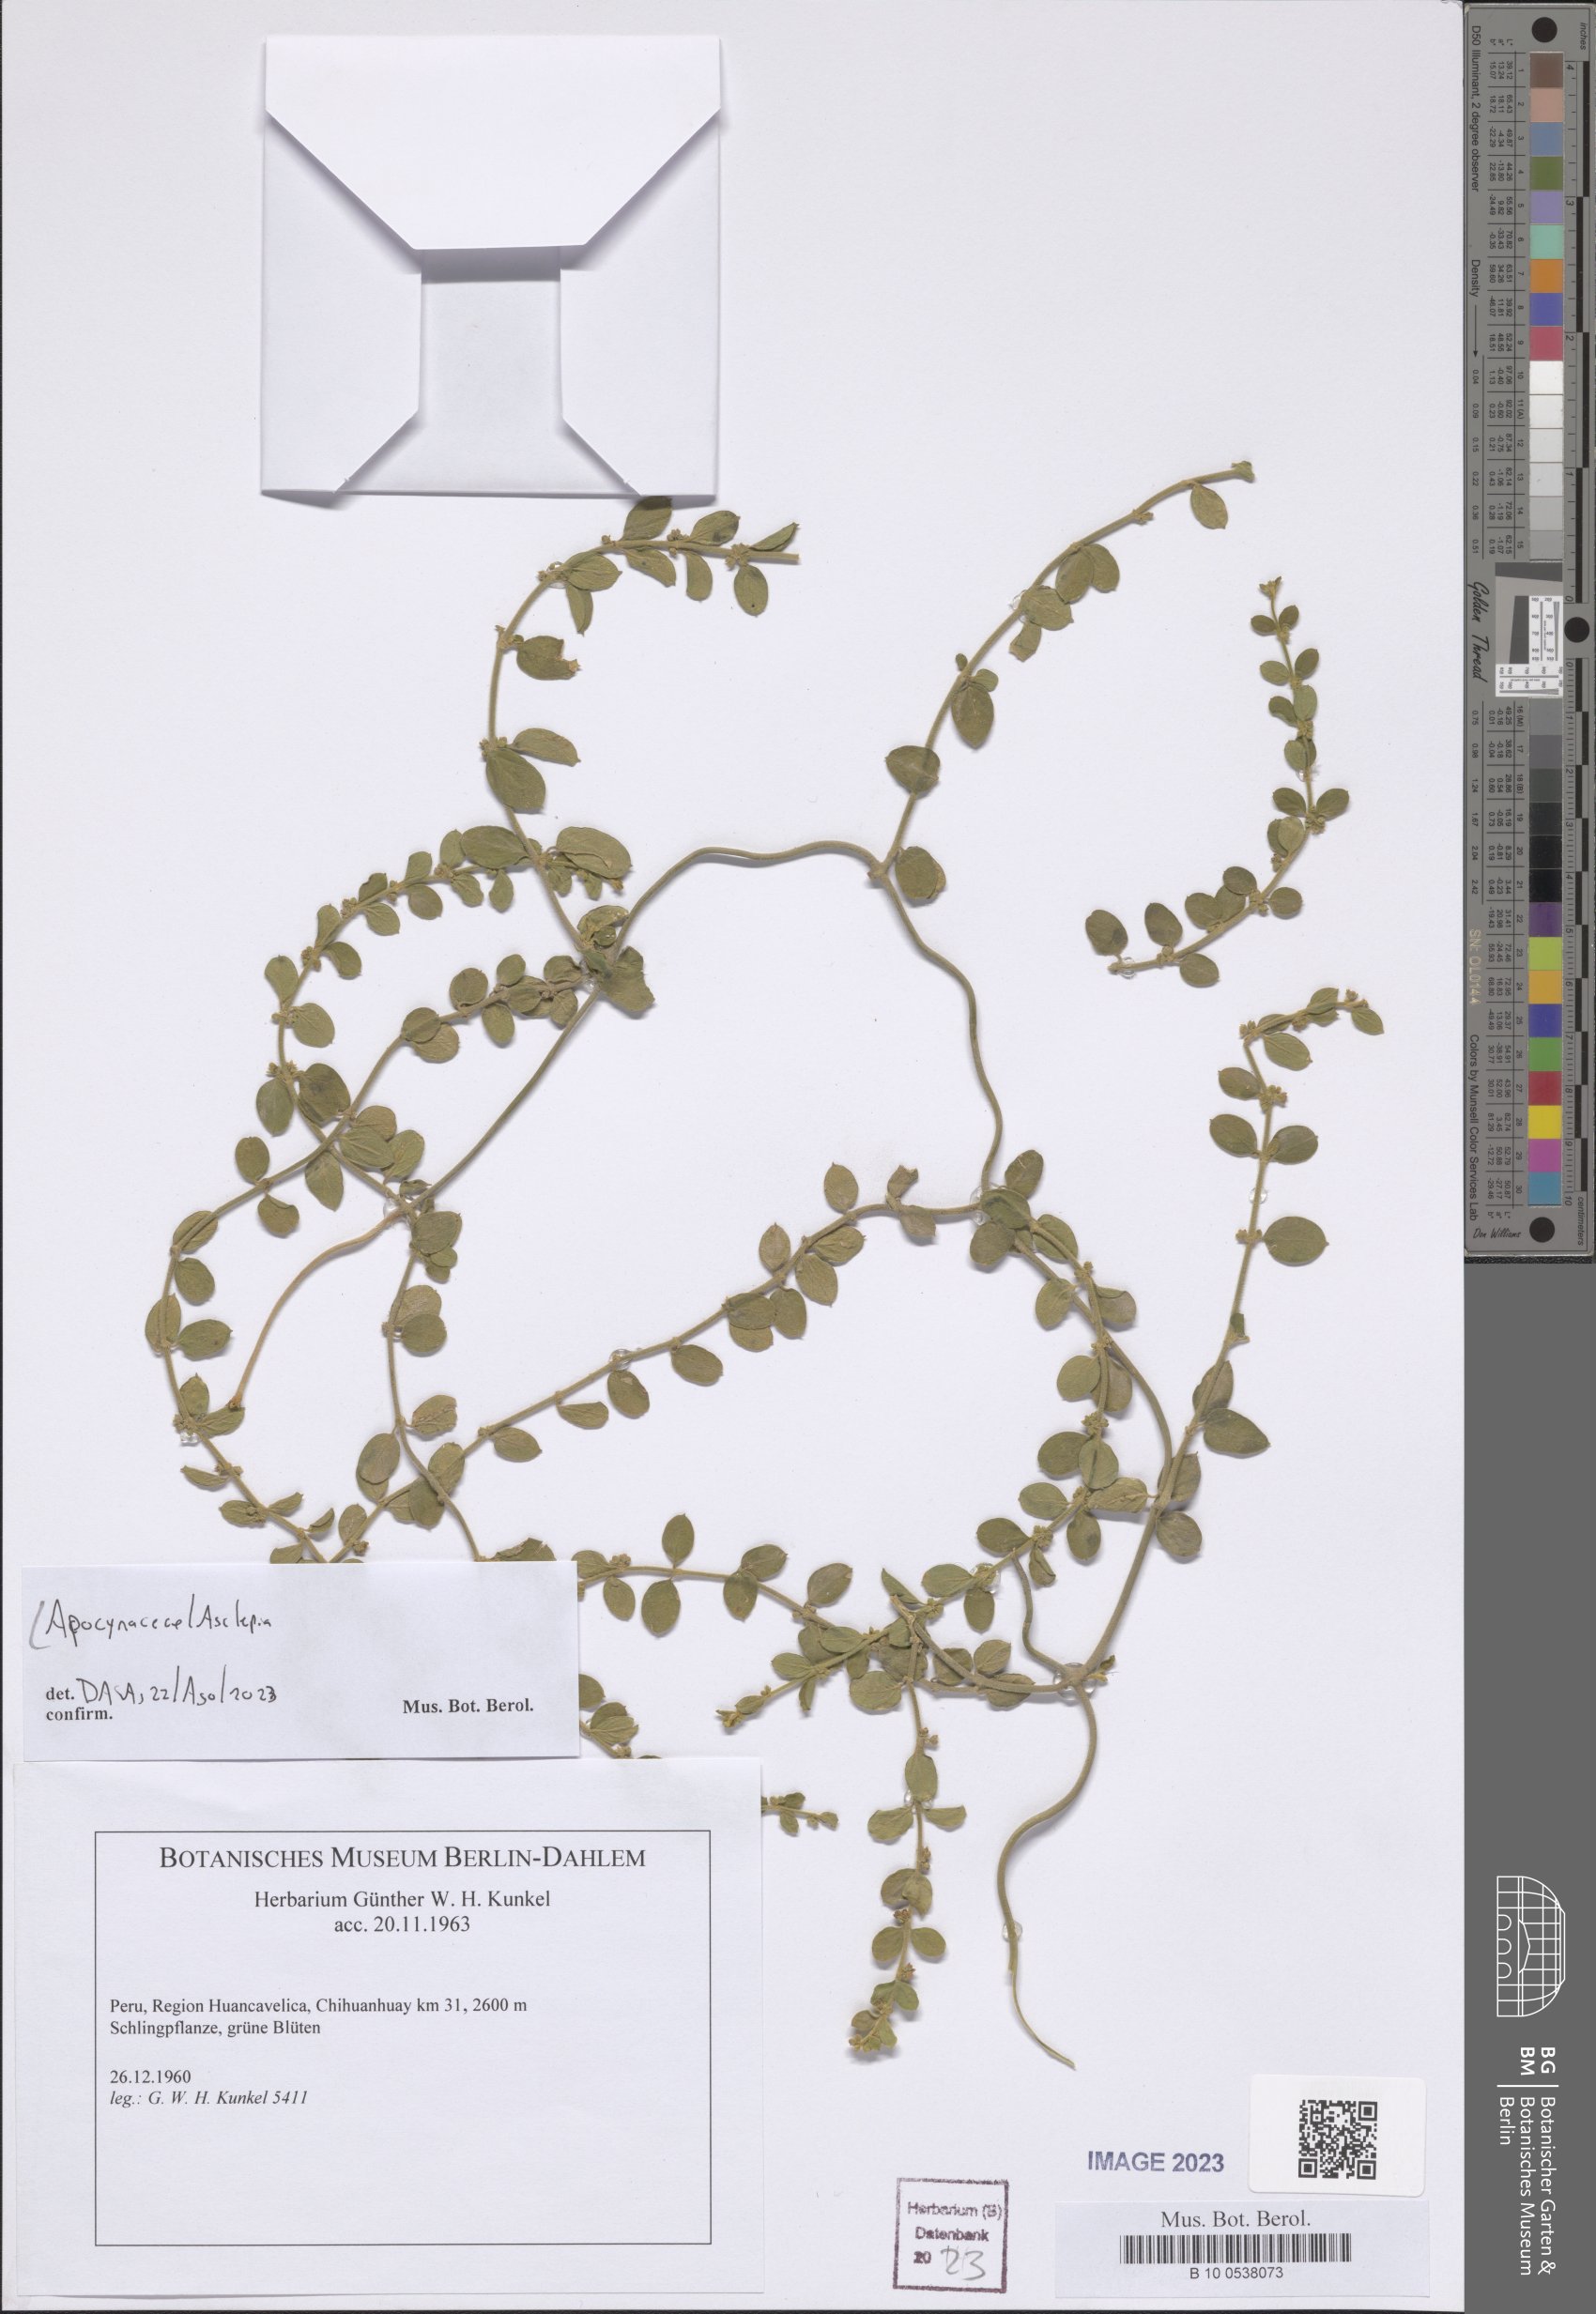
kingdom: Plantae
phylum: Tracheophyta
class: Magnoliopsida
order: Gentianales
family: Apocynaceae
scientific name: Apocynaceae
